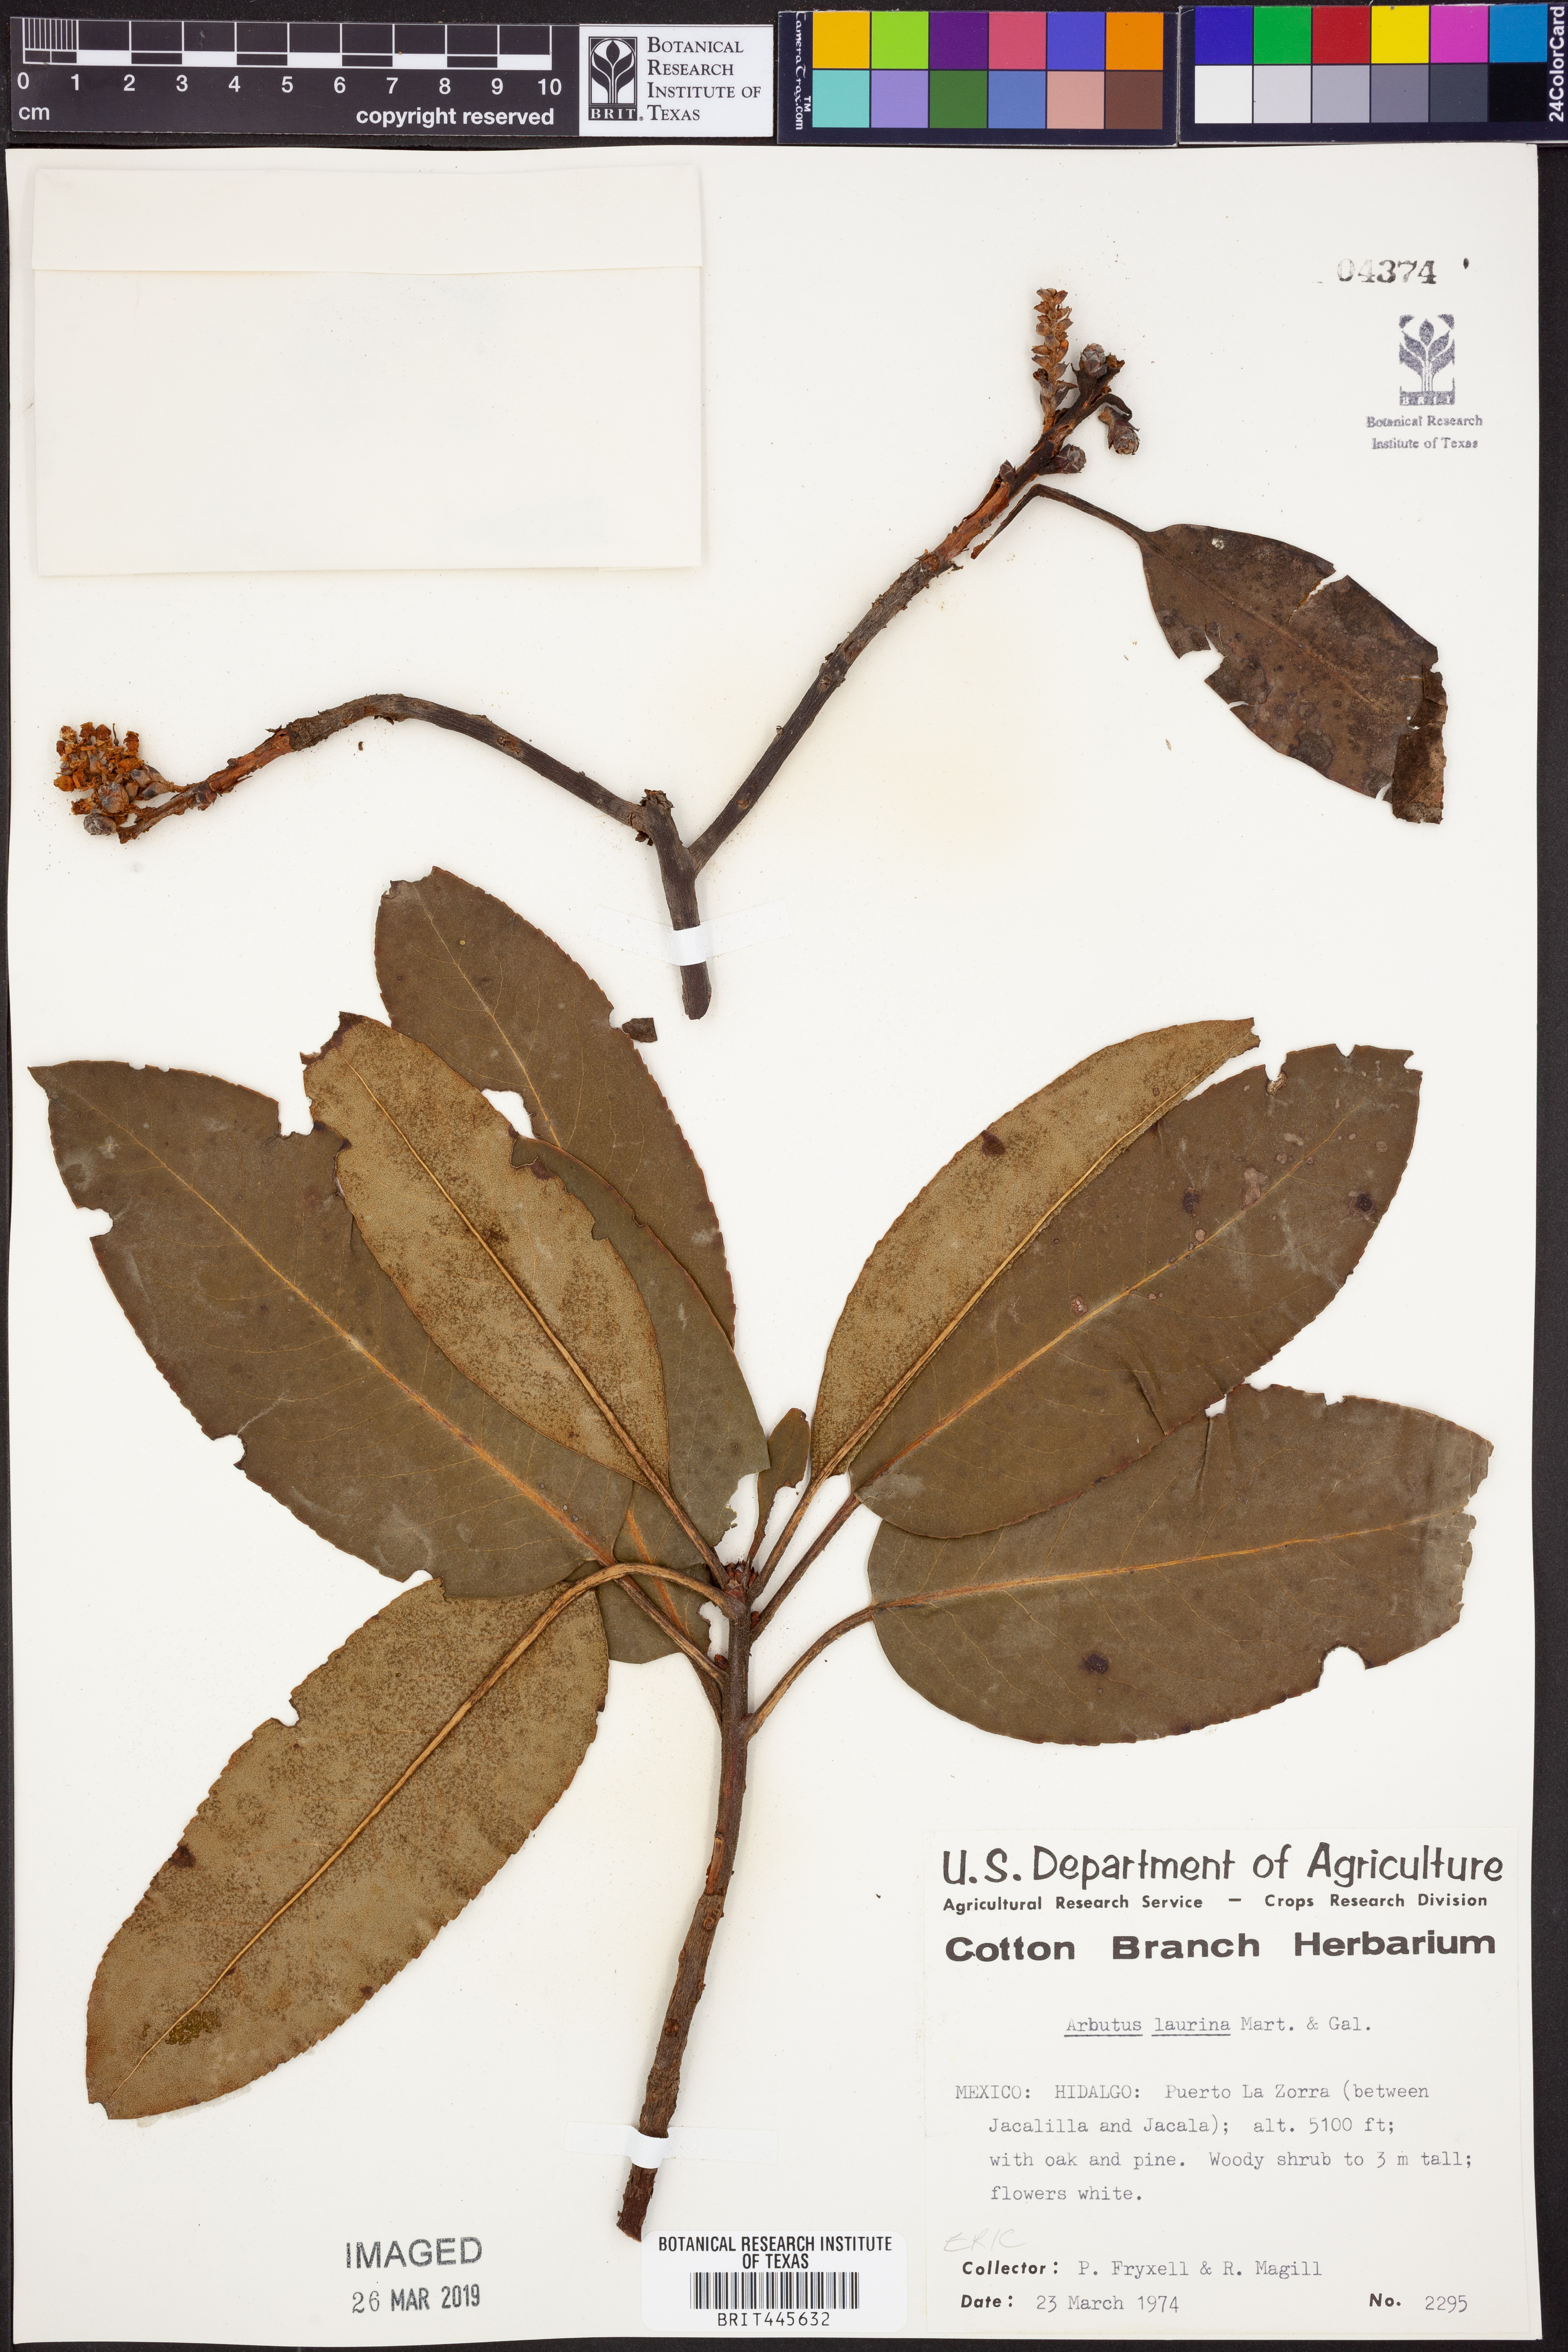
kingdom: Plantae
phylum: Tracheophyta
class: Magnoliopsida
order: Ericales
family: Ericaceae
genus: Arbutus
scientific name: Arbutus xalapensis
